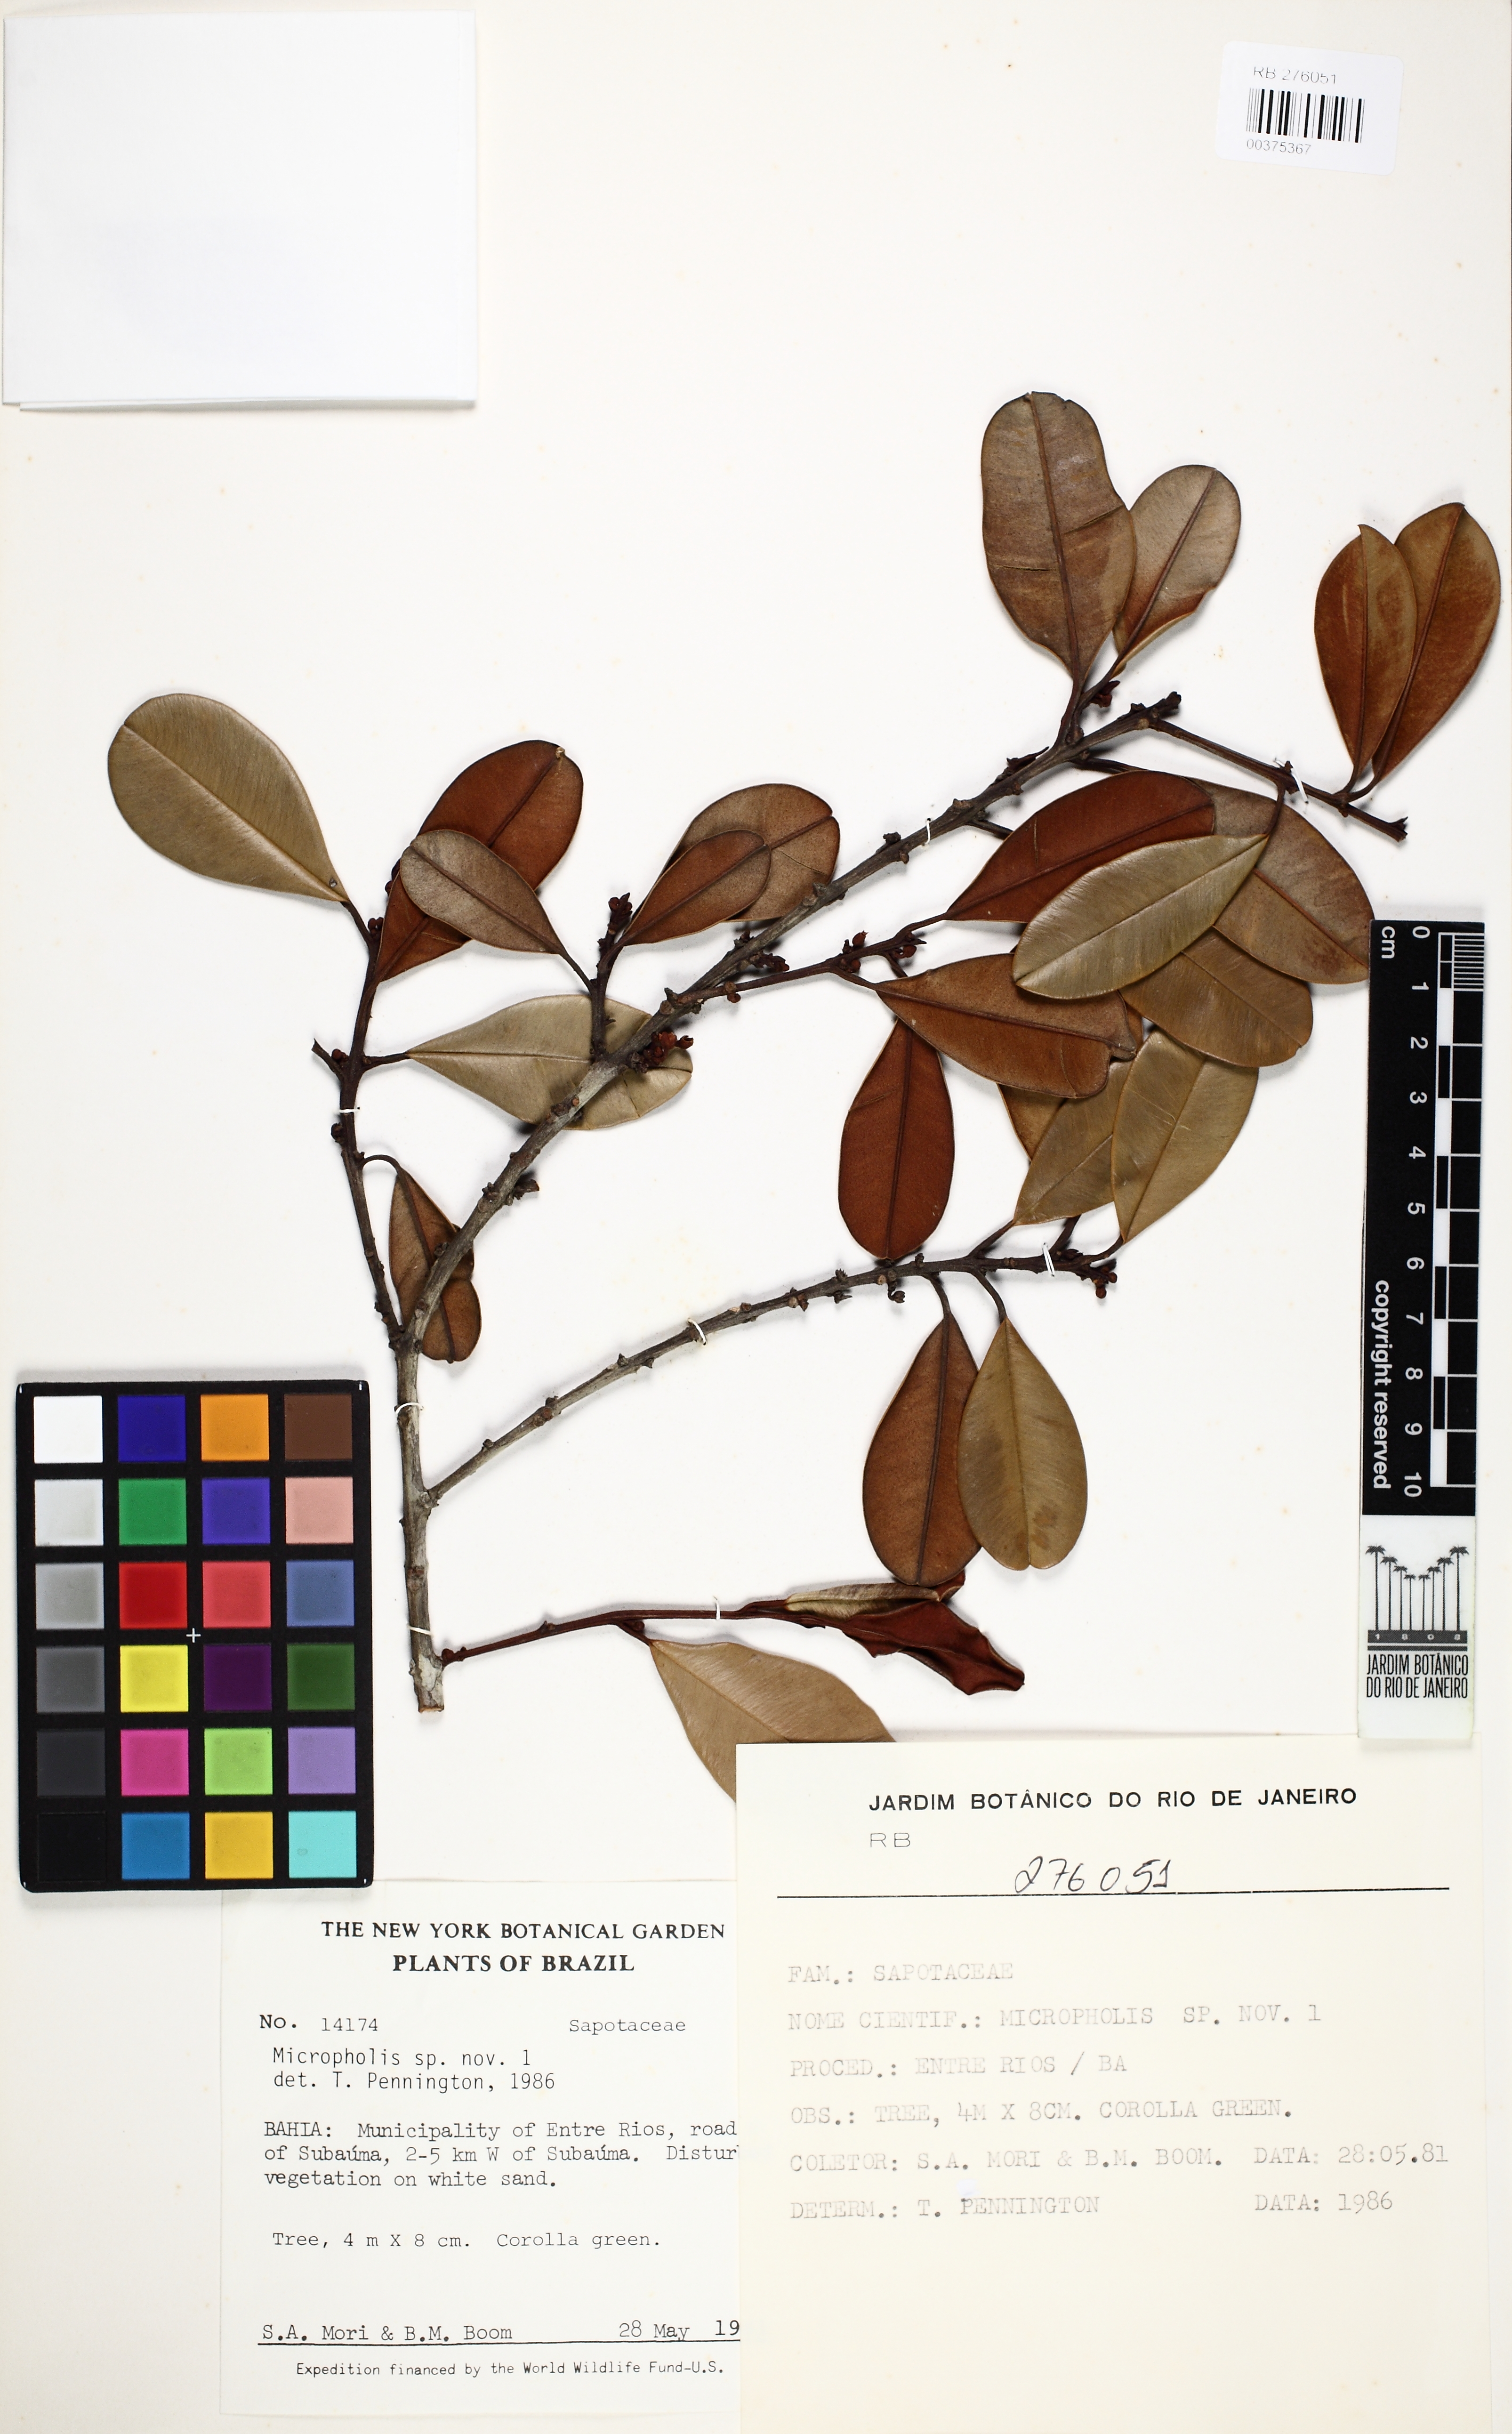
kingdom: Plantae
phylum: Tracheophyta
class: Magnoliopsida
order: Ericales
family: Sapotaceae
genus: Micropholis
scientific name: Micropholis
